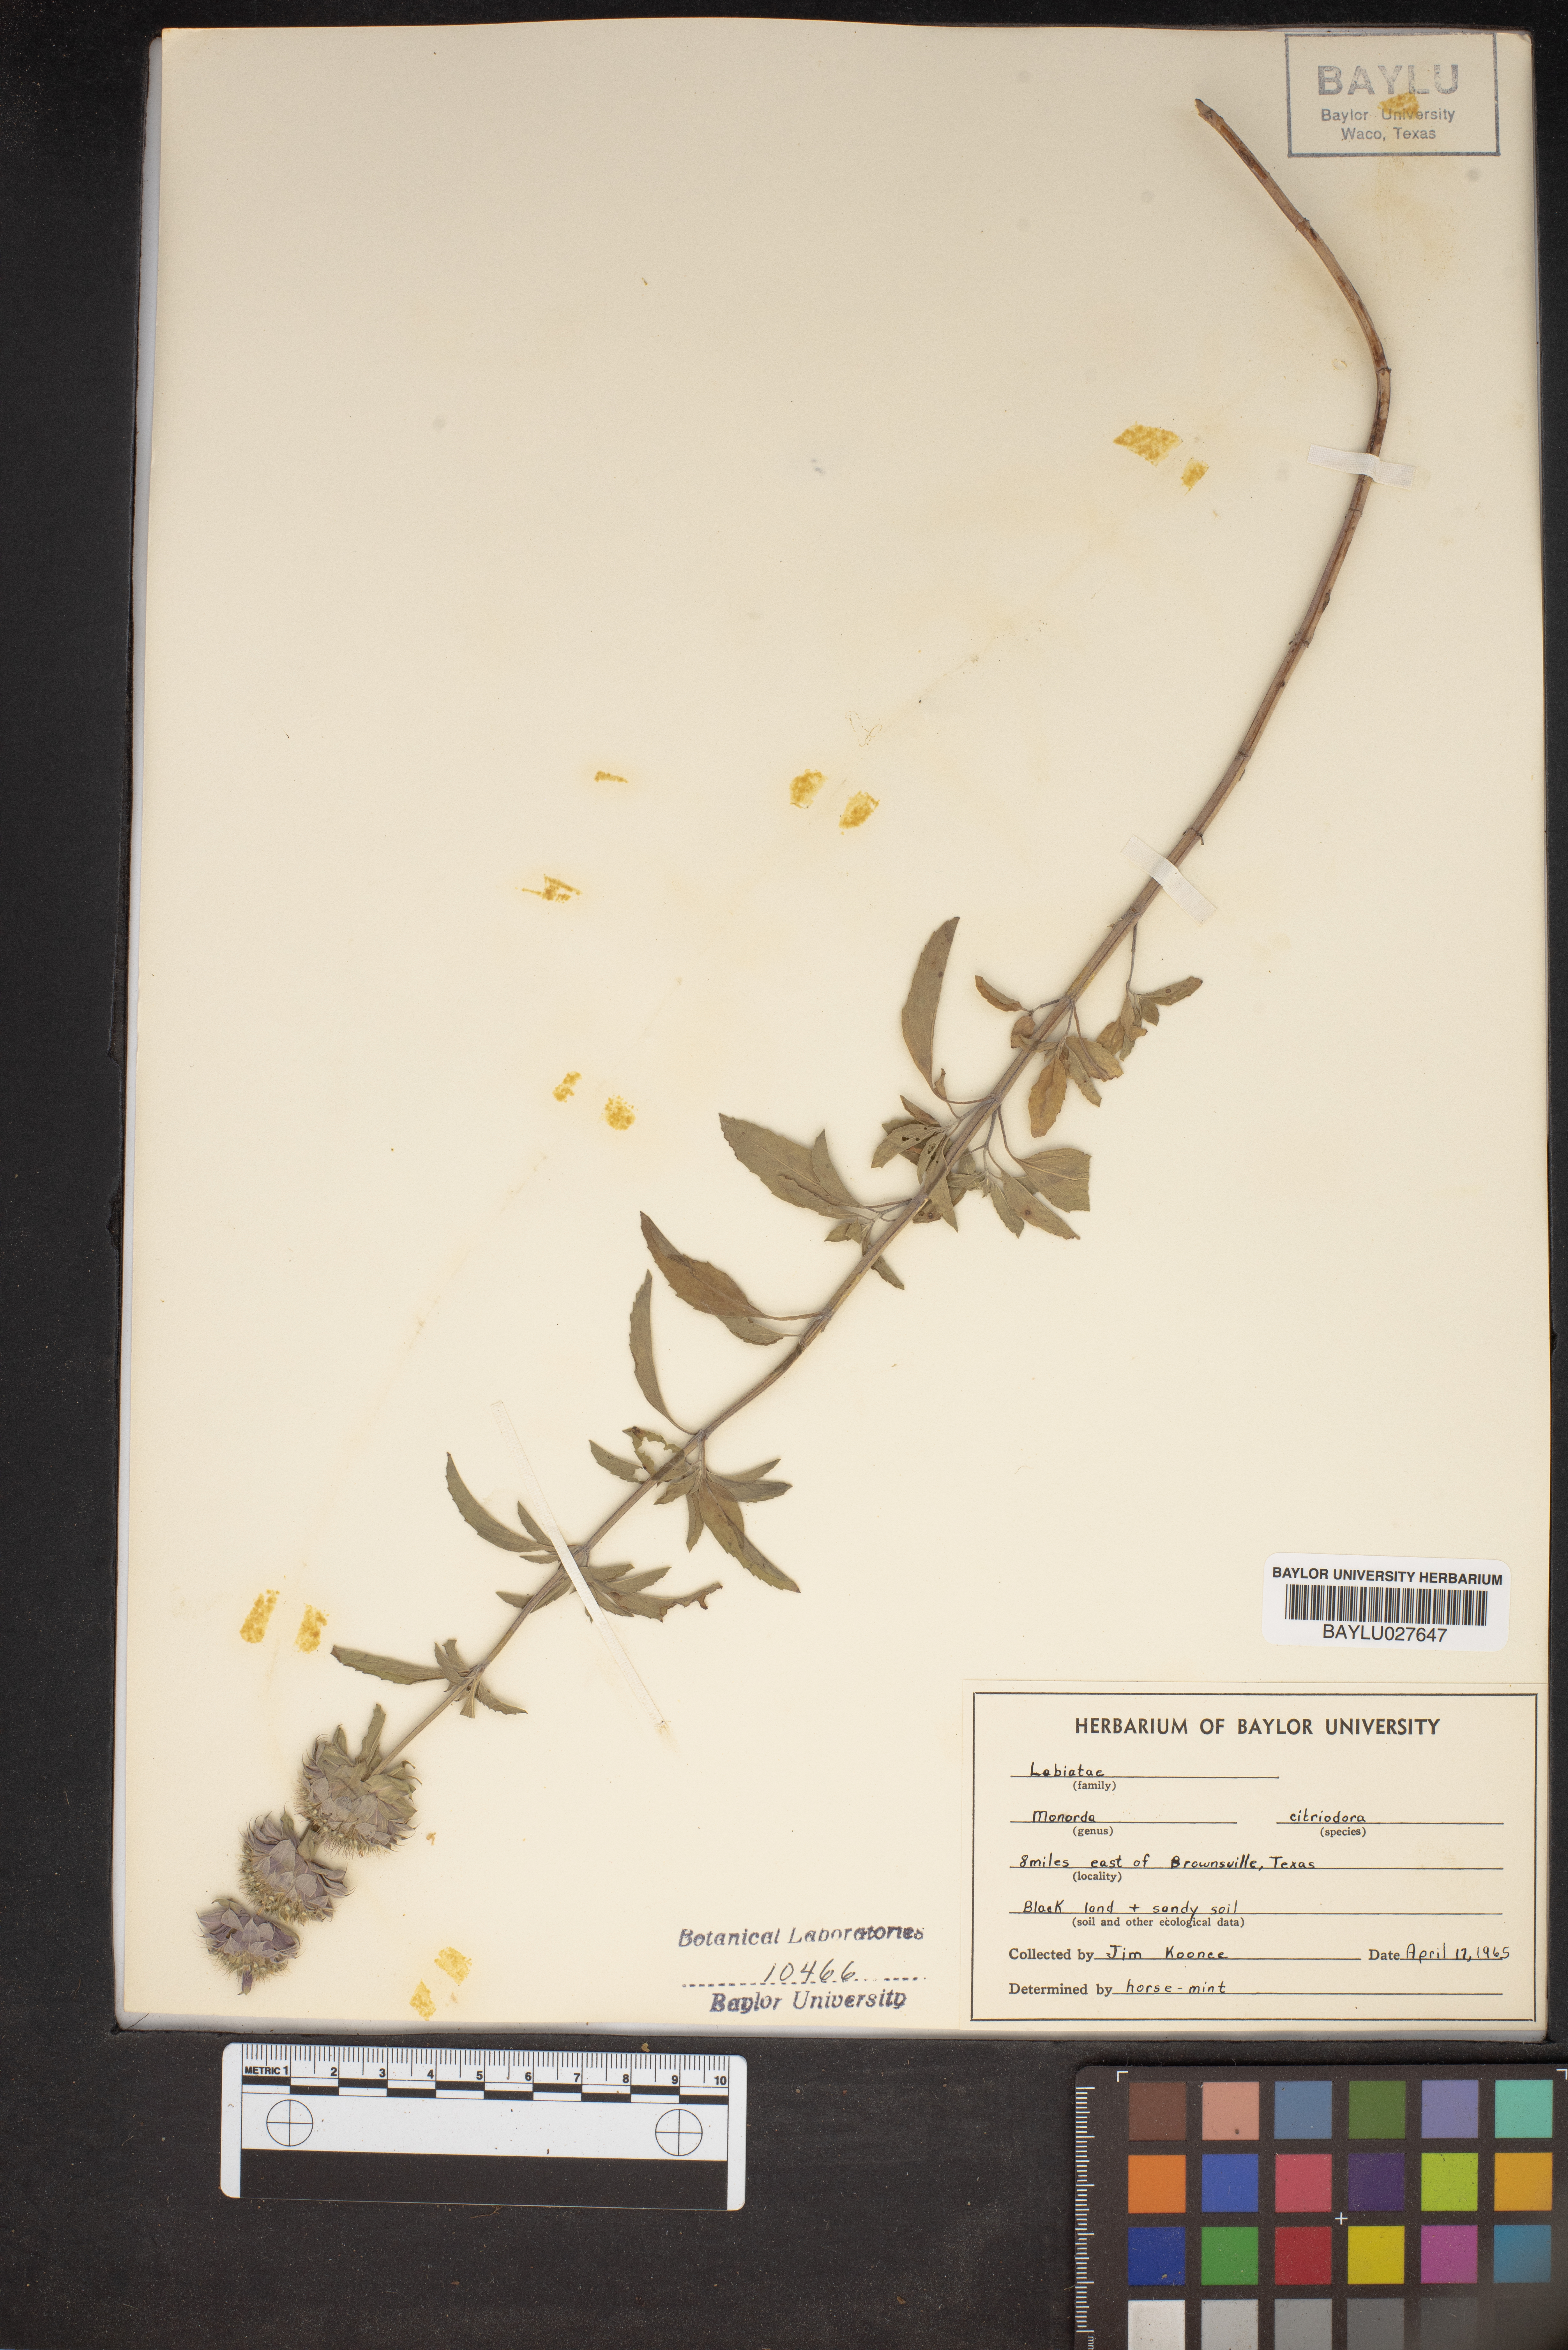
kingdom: Plantae
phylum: Tracheophyta
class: Magnoliopsida
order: Lamiales
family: Lamiaceae
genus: Monarda
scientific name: Monarda citriodora
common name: Lemon beebalm
